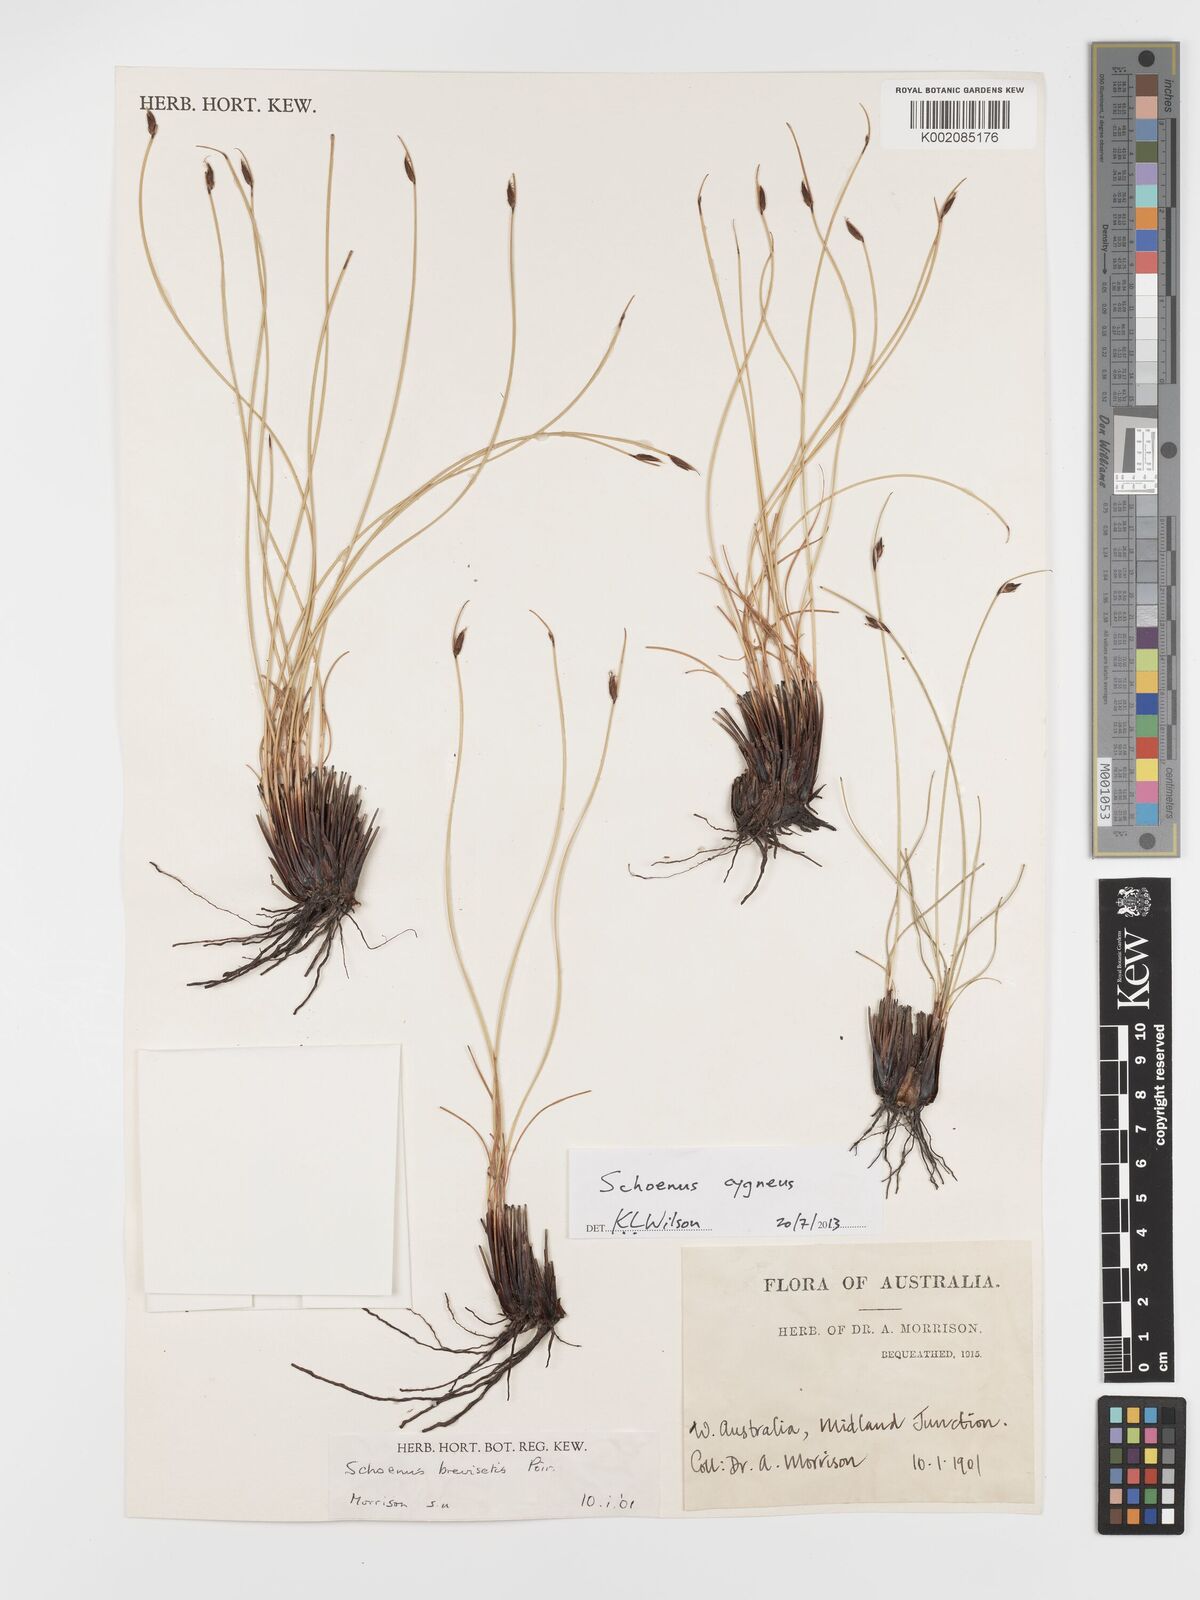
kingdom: Plantae
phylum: Tracheophyta
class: Liliopsida
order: Poales
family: Cyperaceae
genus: Schoenus
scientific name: Schoenus cygneus
